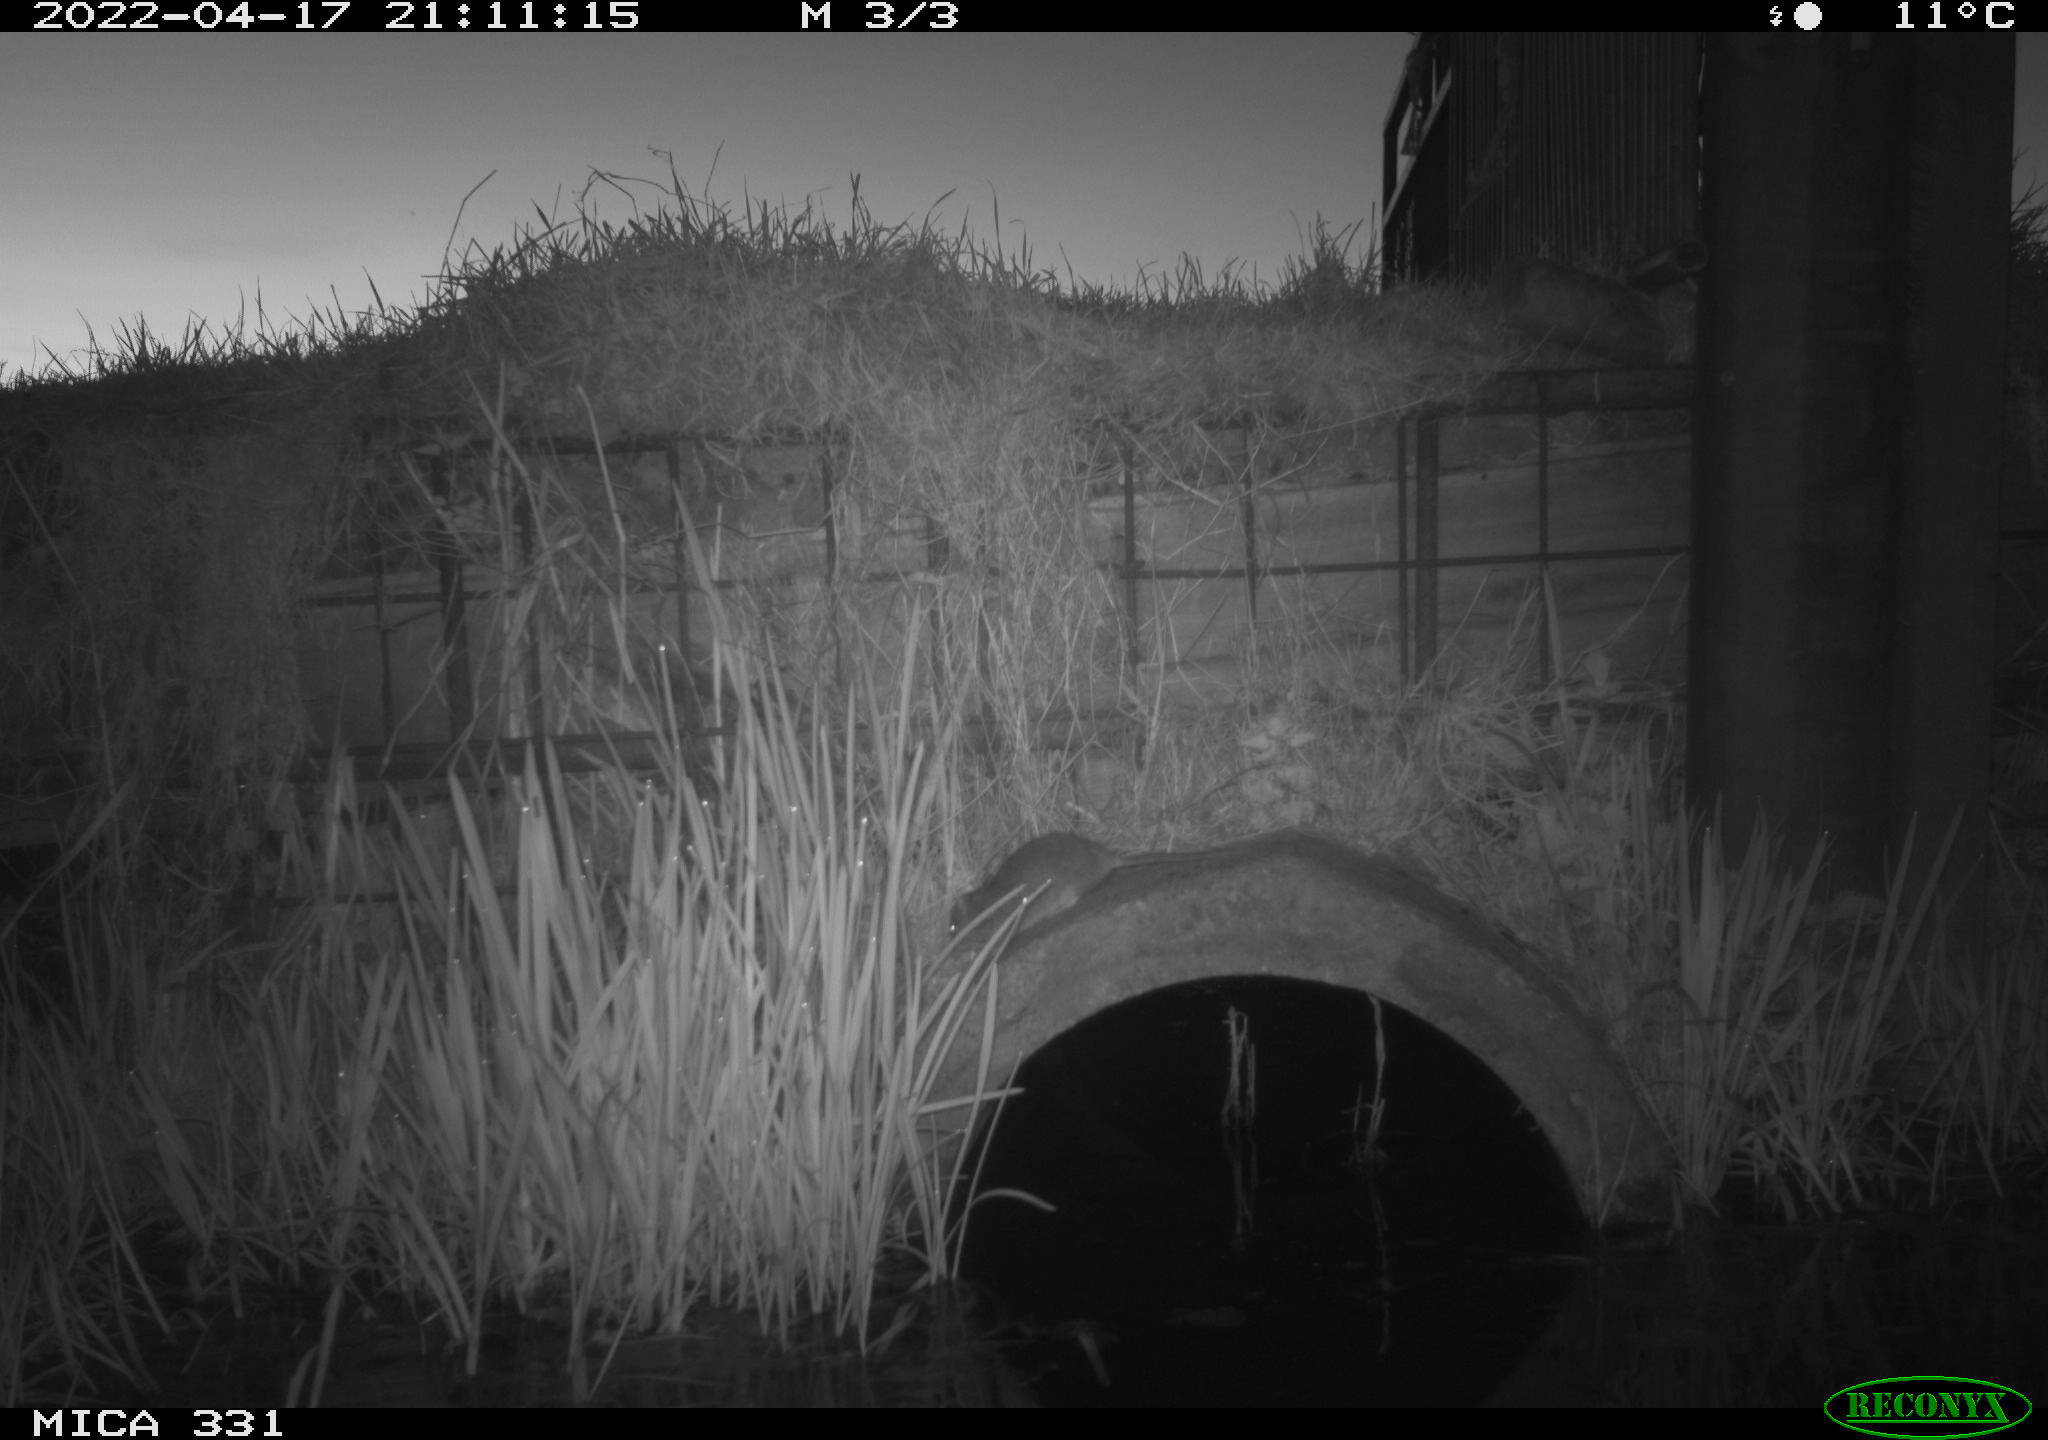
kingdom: Animalia
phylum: Chordata
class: Mammalia
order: Rodentia
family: Muridae
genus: Rattus
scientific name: Rattus norvegicus
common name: Brown rat
